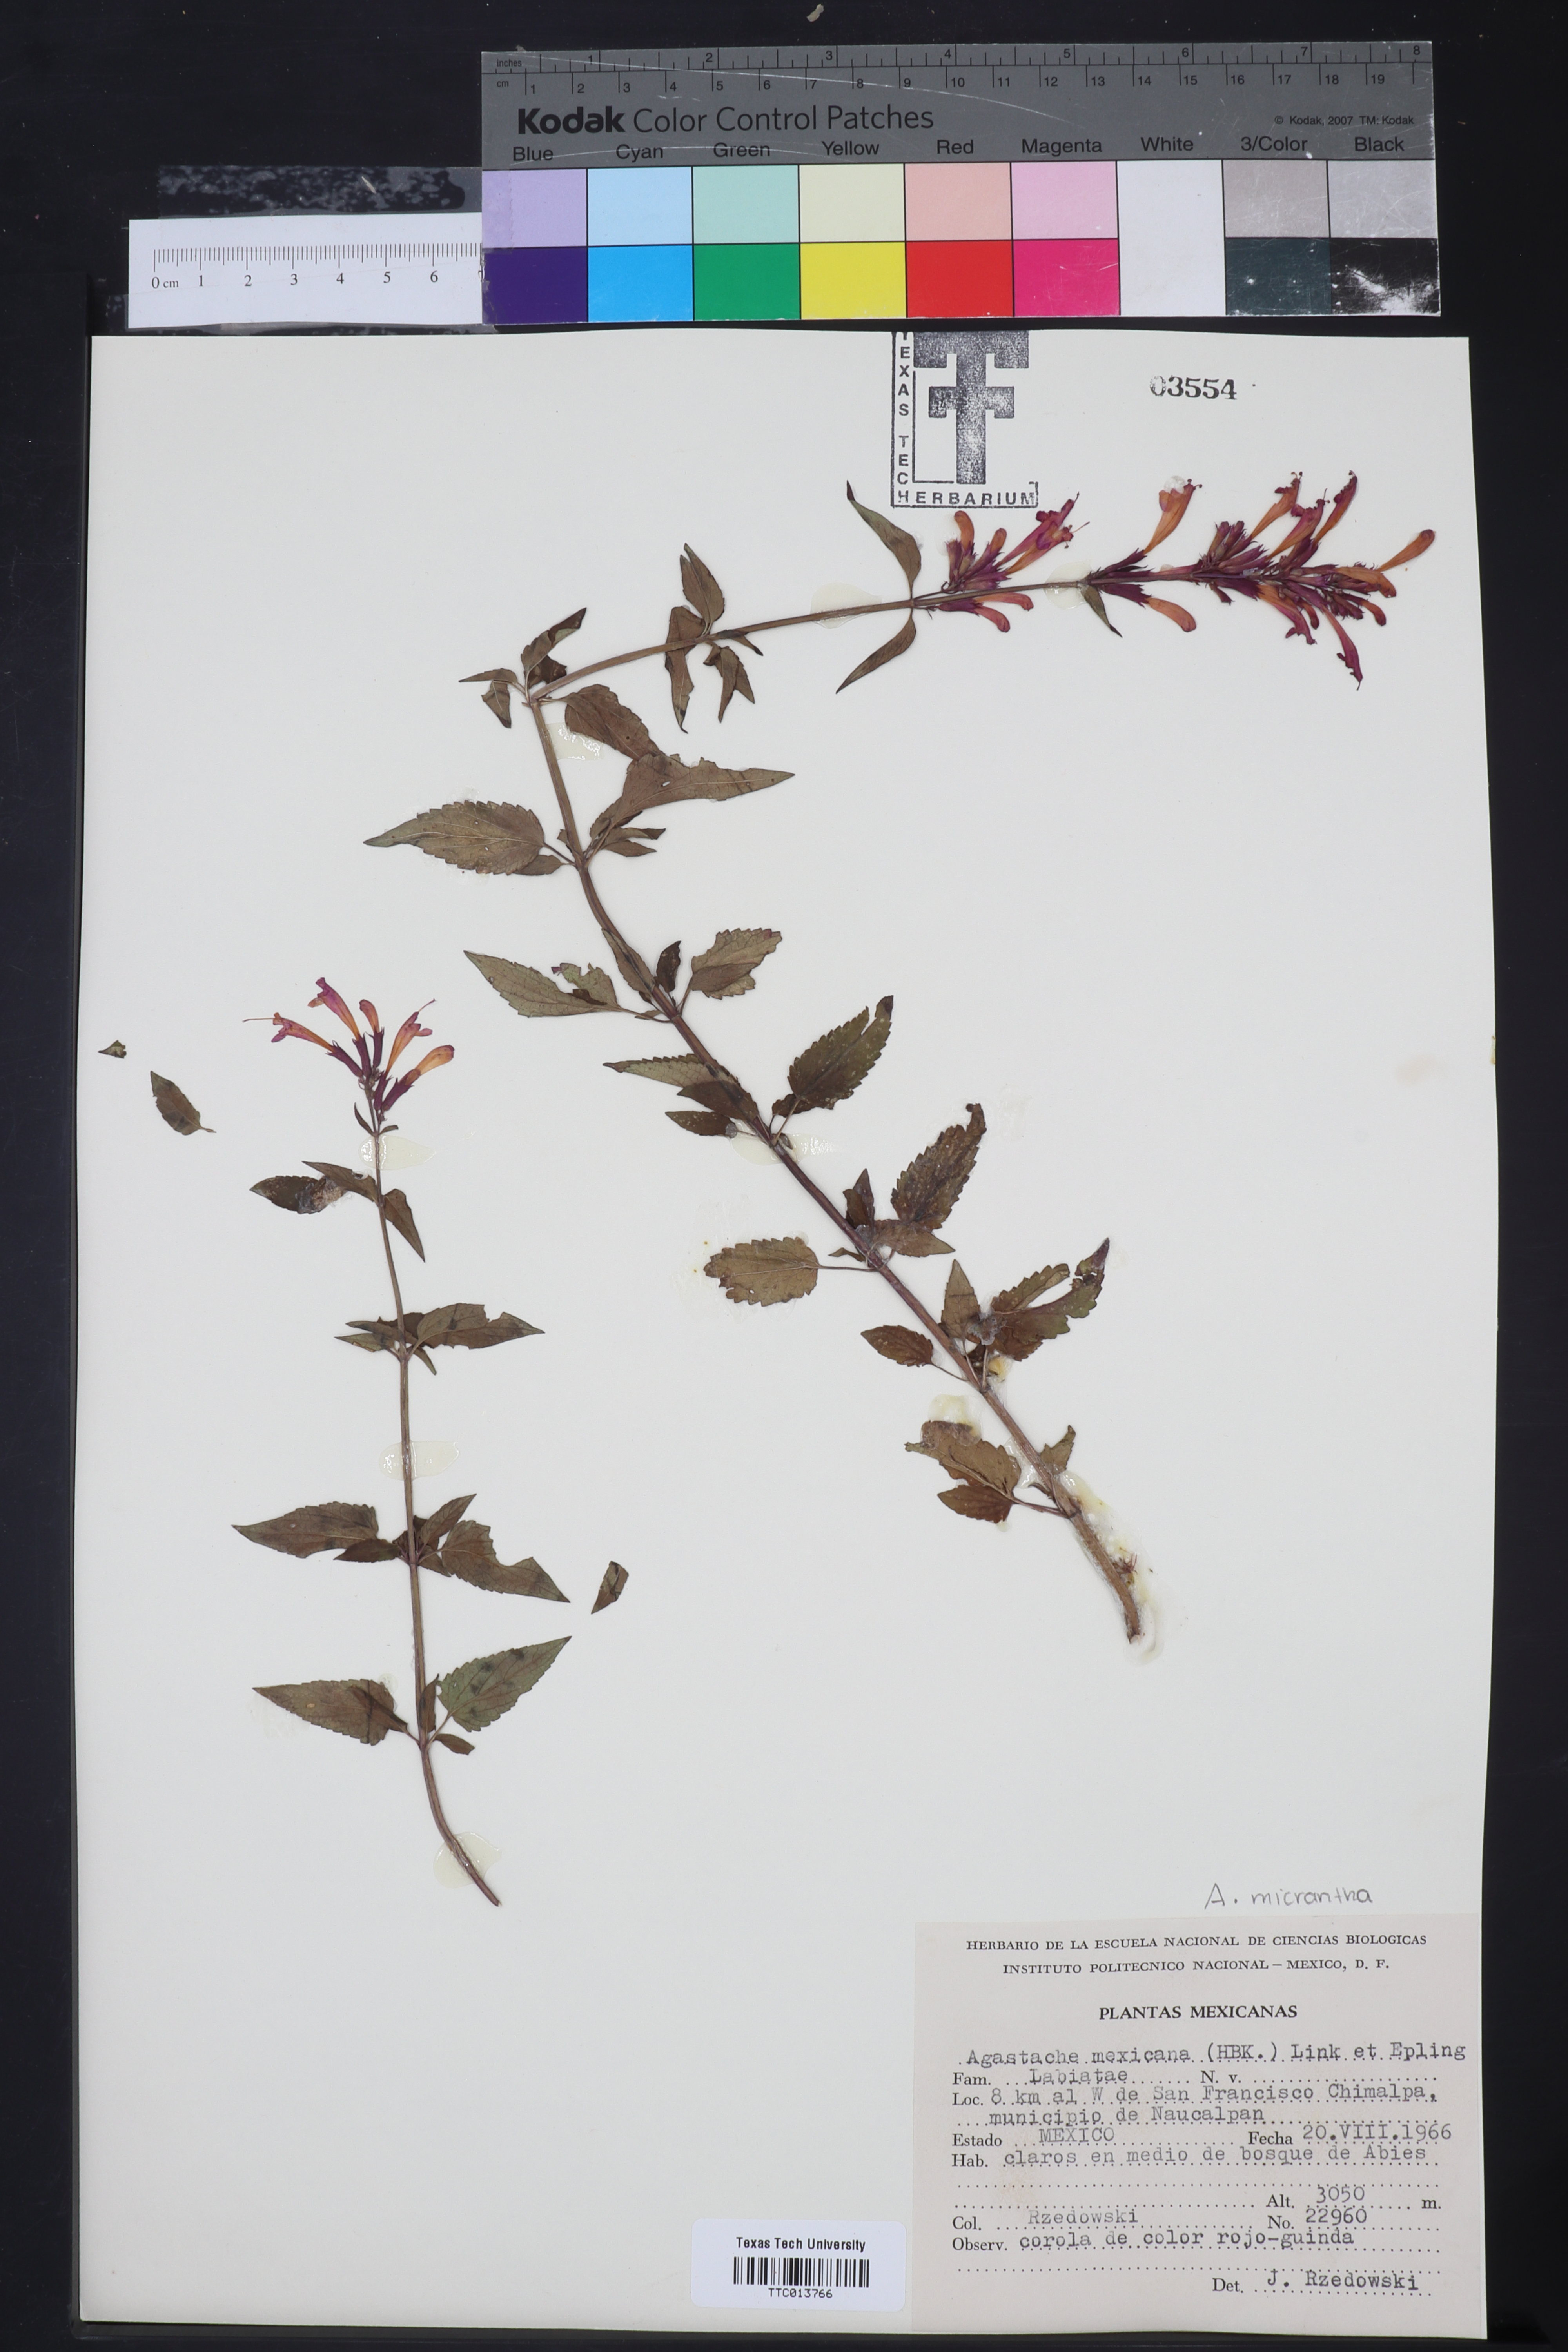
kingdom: Plantae
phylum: Tracheophyta
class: Magnoliopsida
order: Lamiales
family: Lamiaceae
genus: Agastache
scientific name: Agastache mexicana
